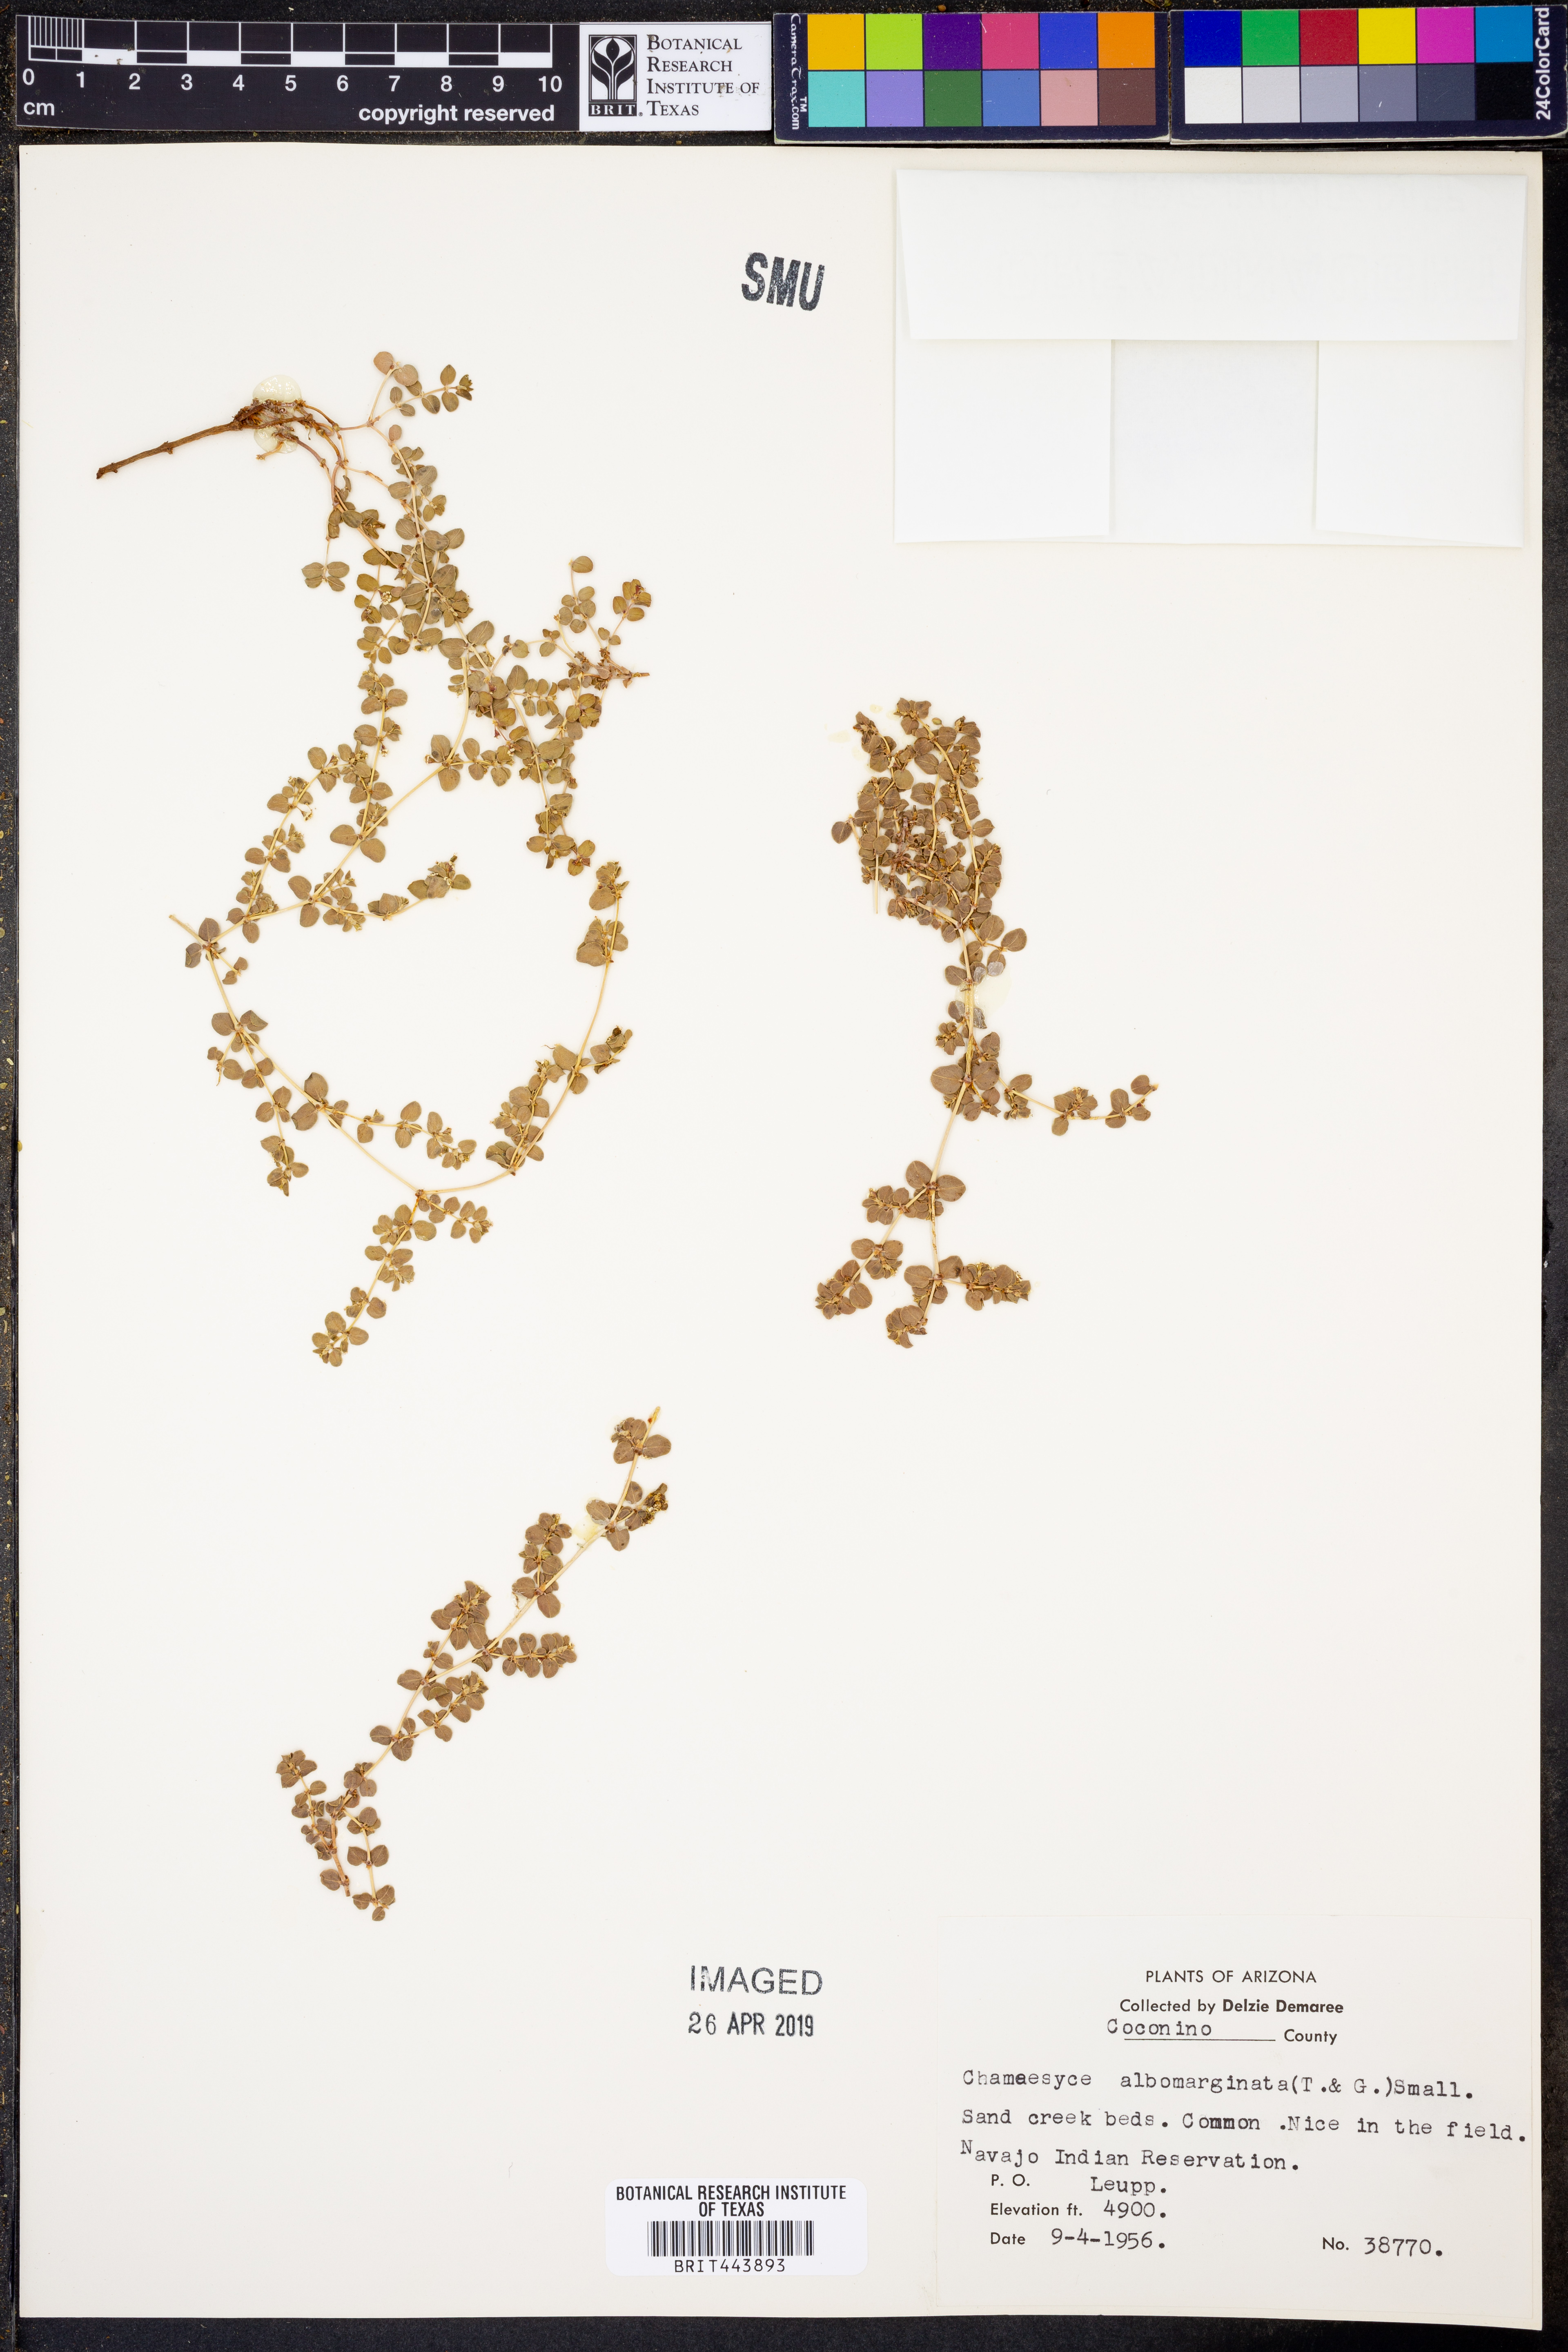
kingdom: Plantae
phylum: Tracheophyta
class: Magnoliopsida
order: Malpighiales
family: Euphorbiaceae
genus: Euphorbia
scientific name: Euphorbia albomarginata
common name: Whitemargin sandmat
